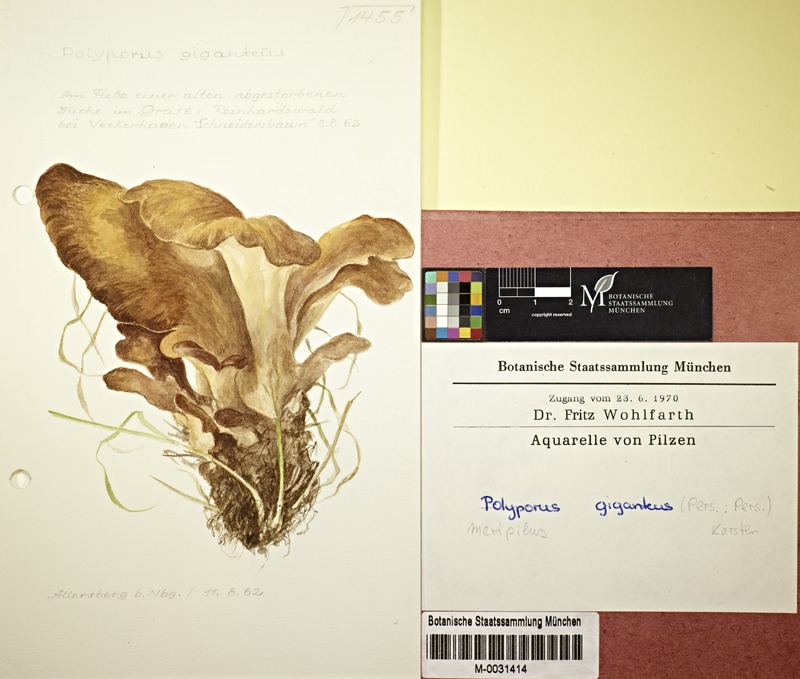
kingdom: Fungi
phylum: Basidiomycota
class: Agaricomycetes
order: Polyporales
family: Meripilaceae
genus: Meripilus
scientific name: Meripilus giganteus
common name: Giant polypore
